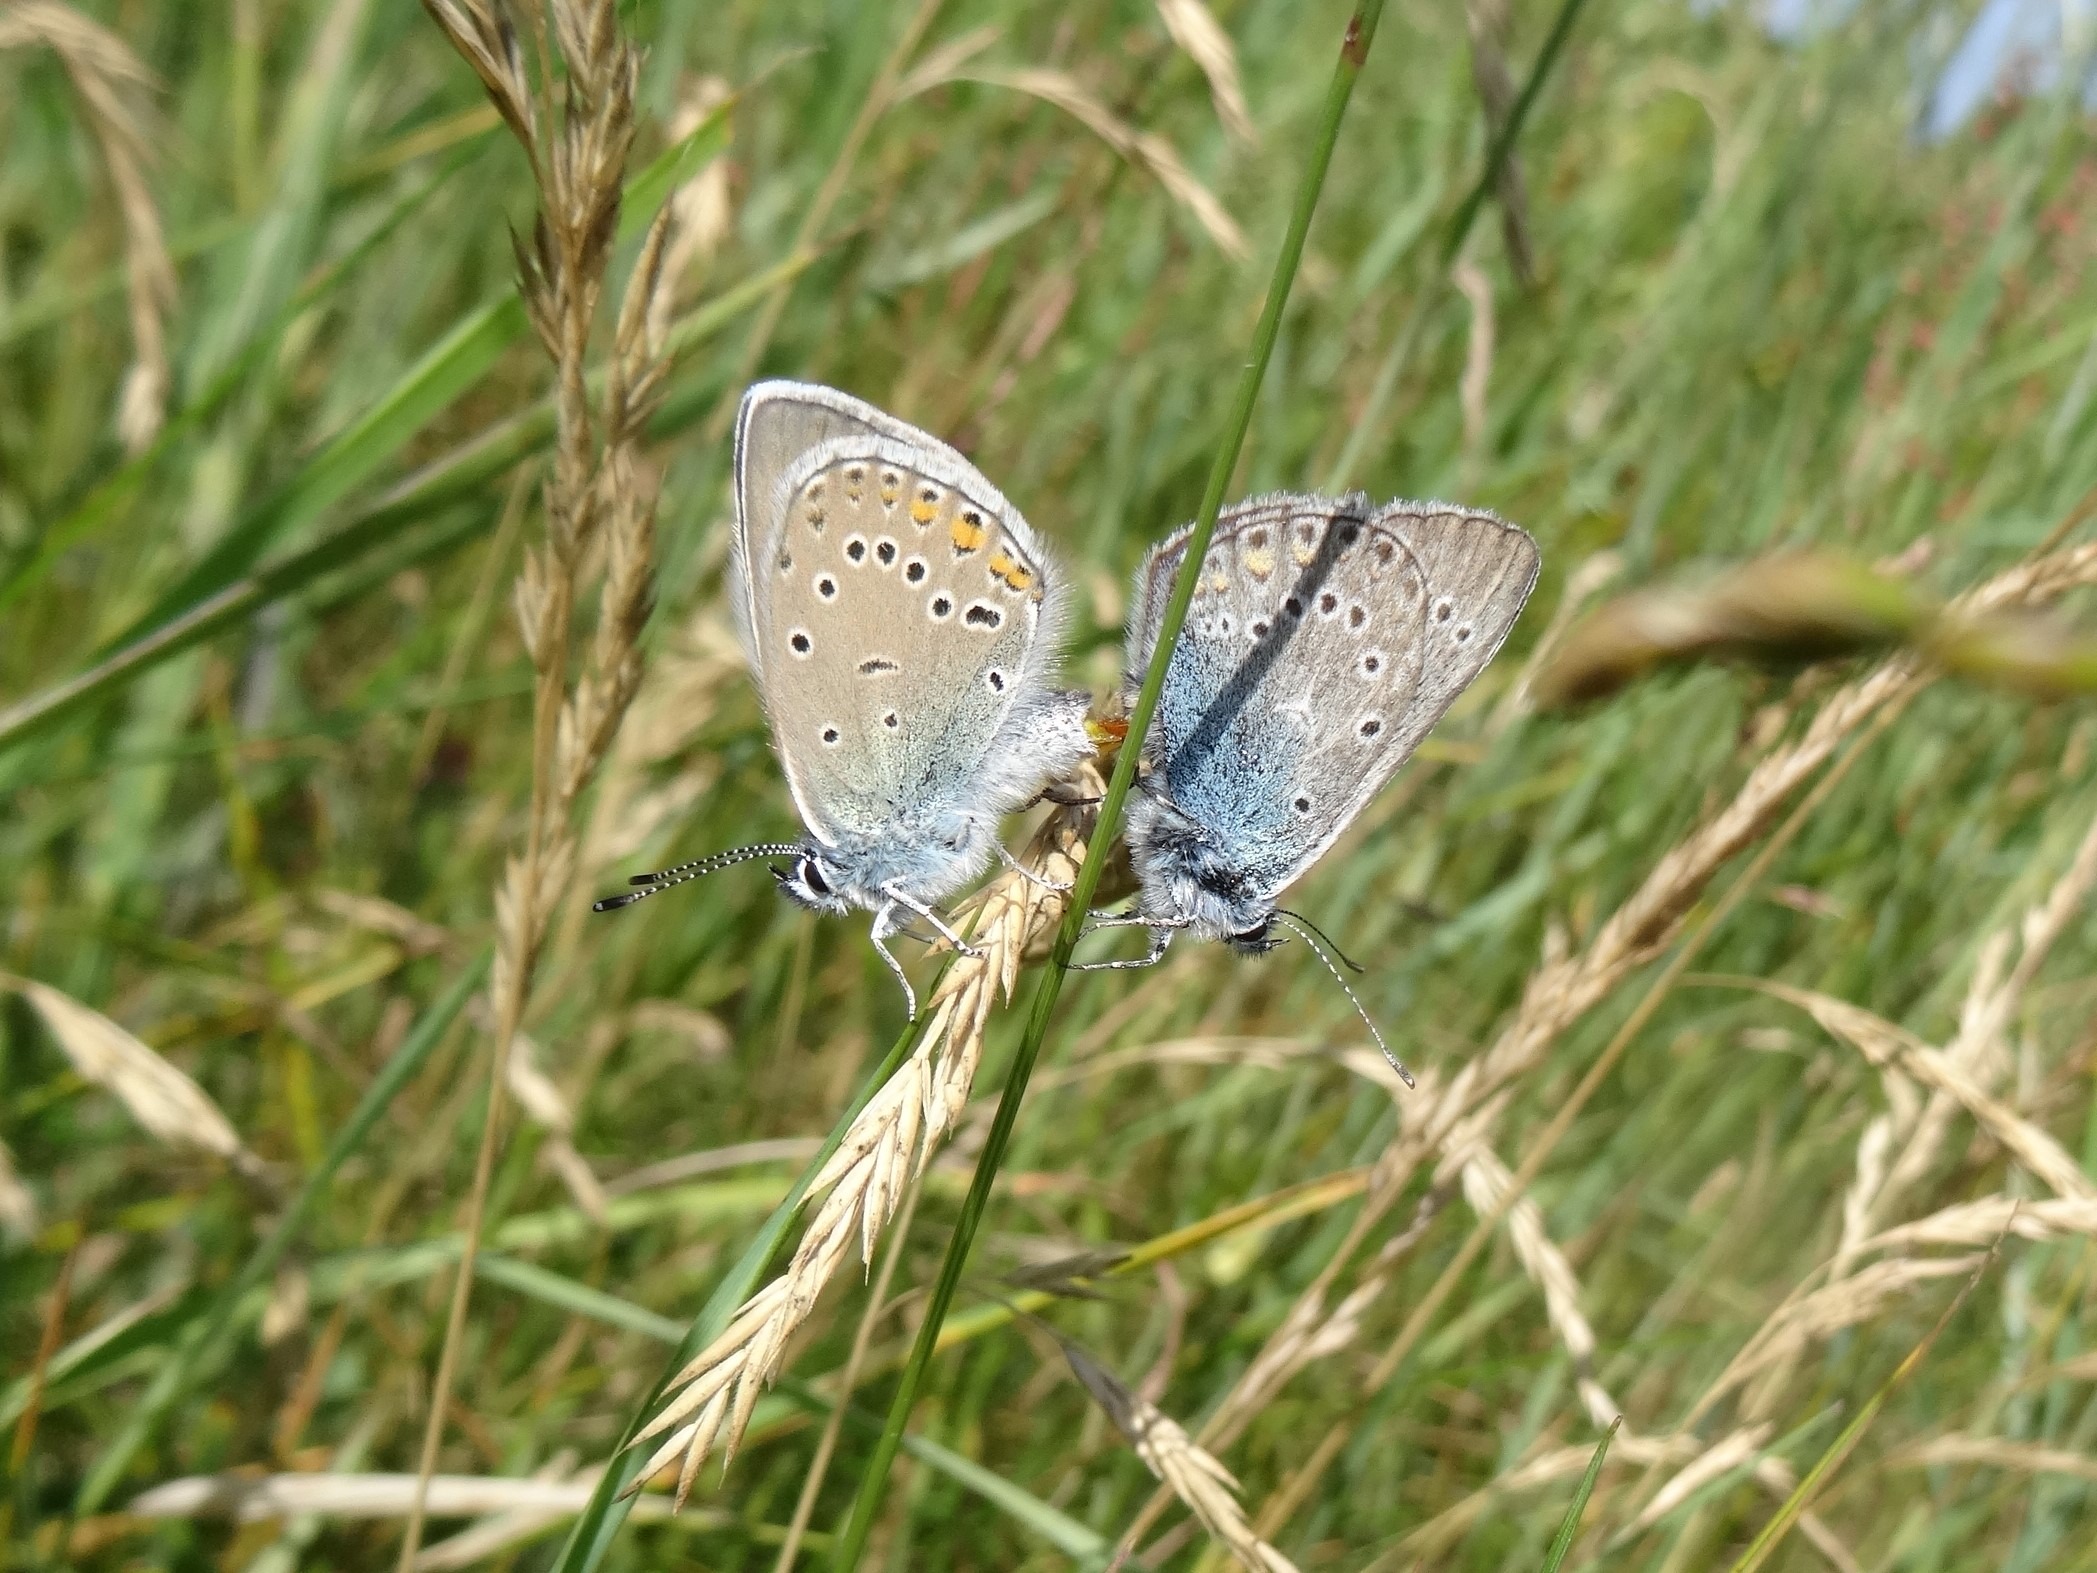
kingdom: Animalia
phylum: Arthropoda
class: Insecta
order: Lepidoptera
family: Lycaenidae
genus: Plebejus
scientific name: Plebejus amanda
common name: Isblåfugl
